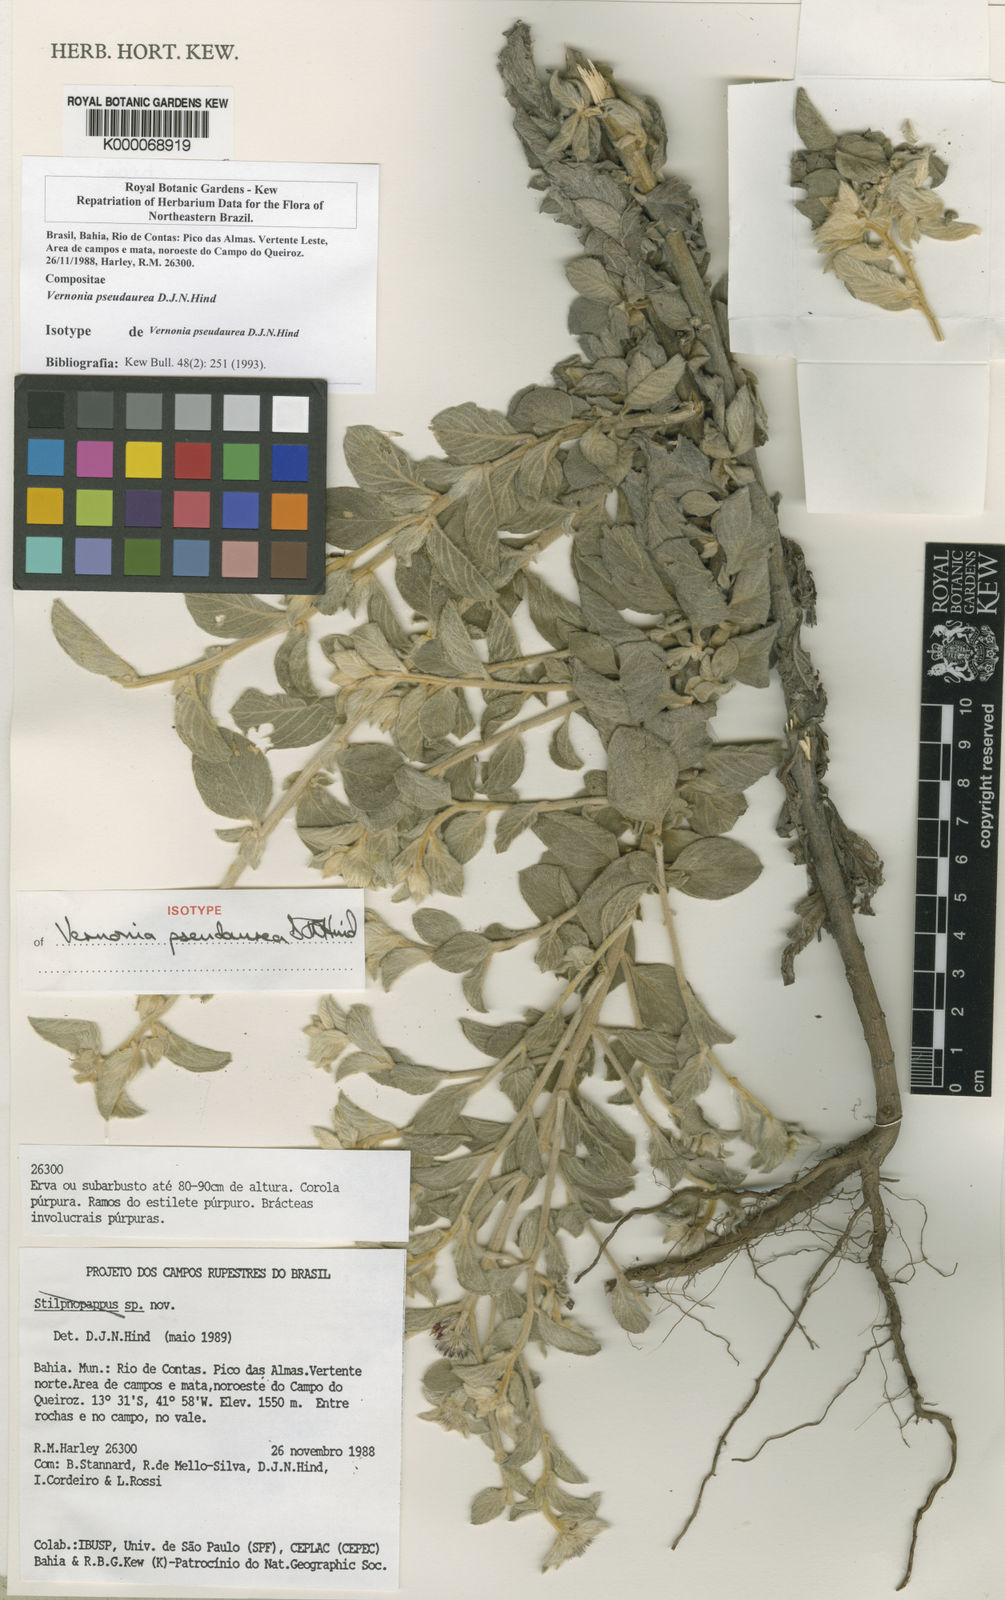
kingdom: Plantae
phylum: Tracheophyta
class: Magnoliopsida
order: Asterales
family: Asteraceae
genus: Lepidaploa
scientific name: Lepidaploa pseudaurea
